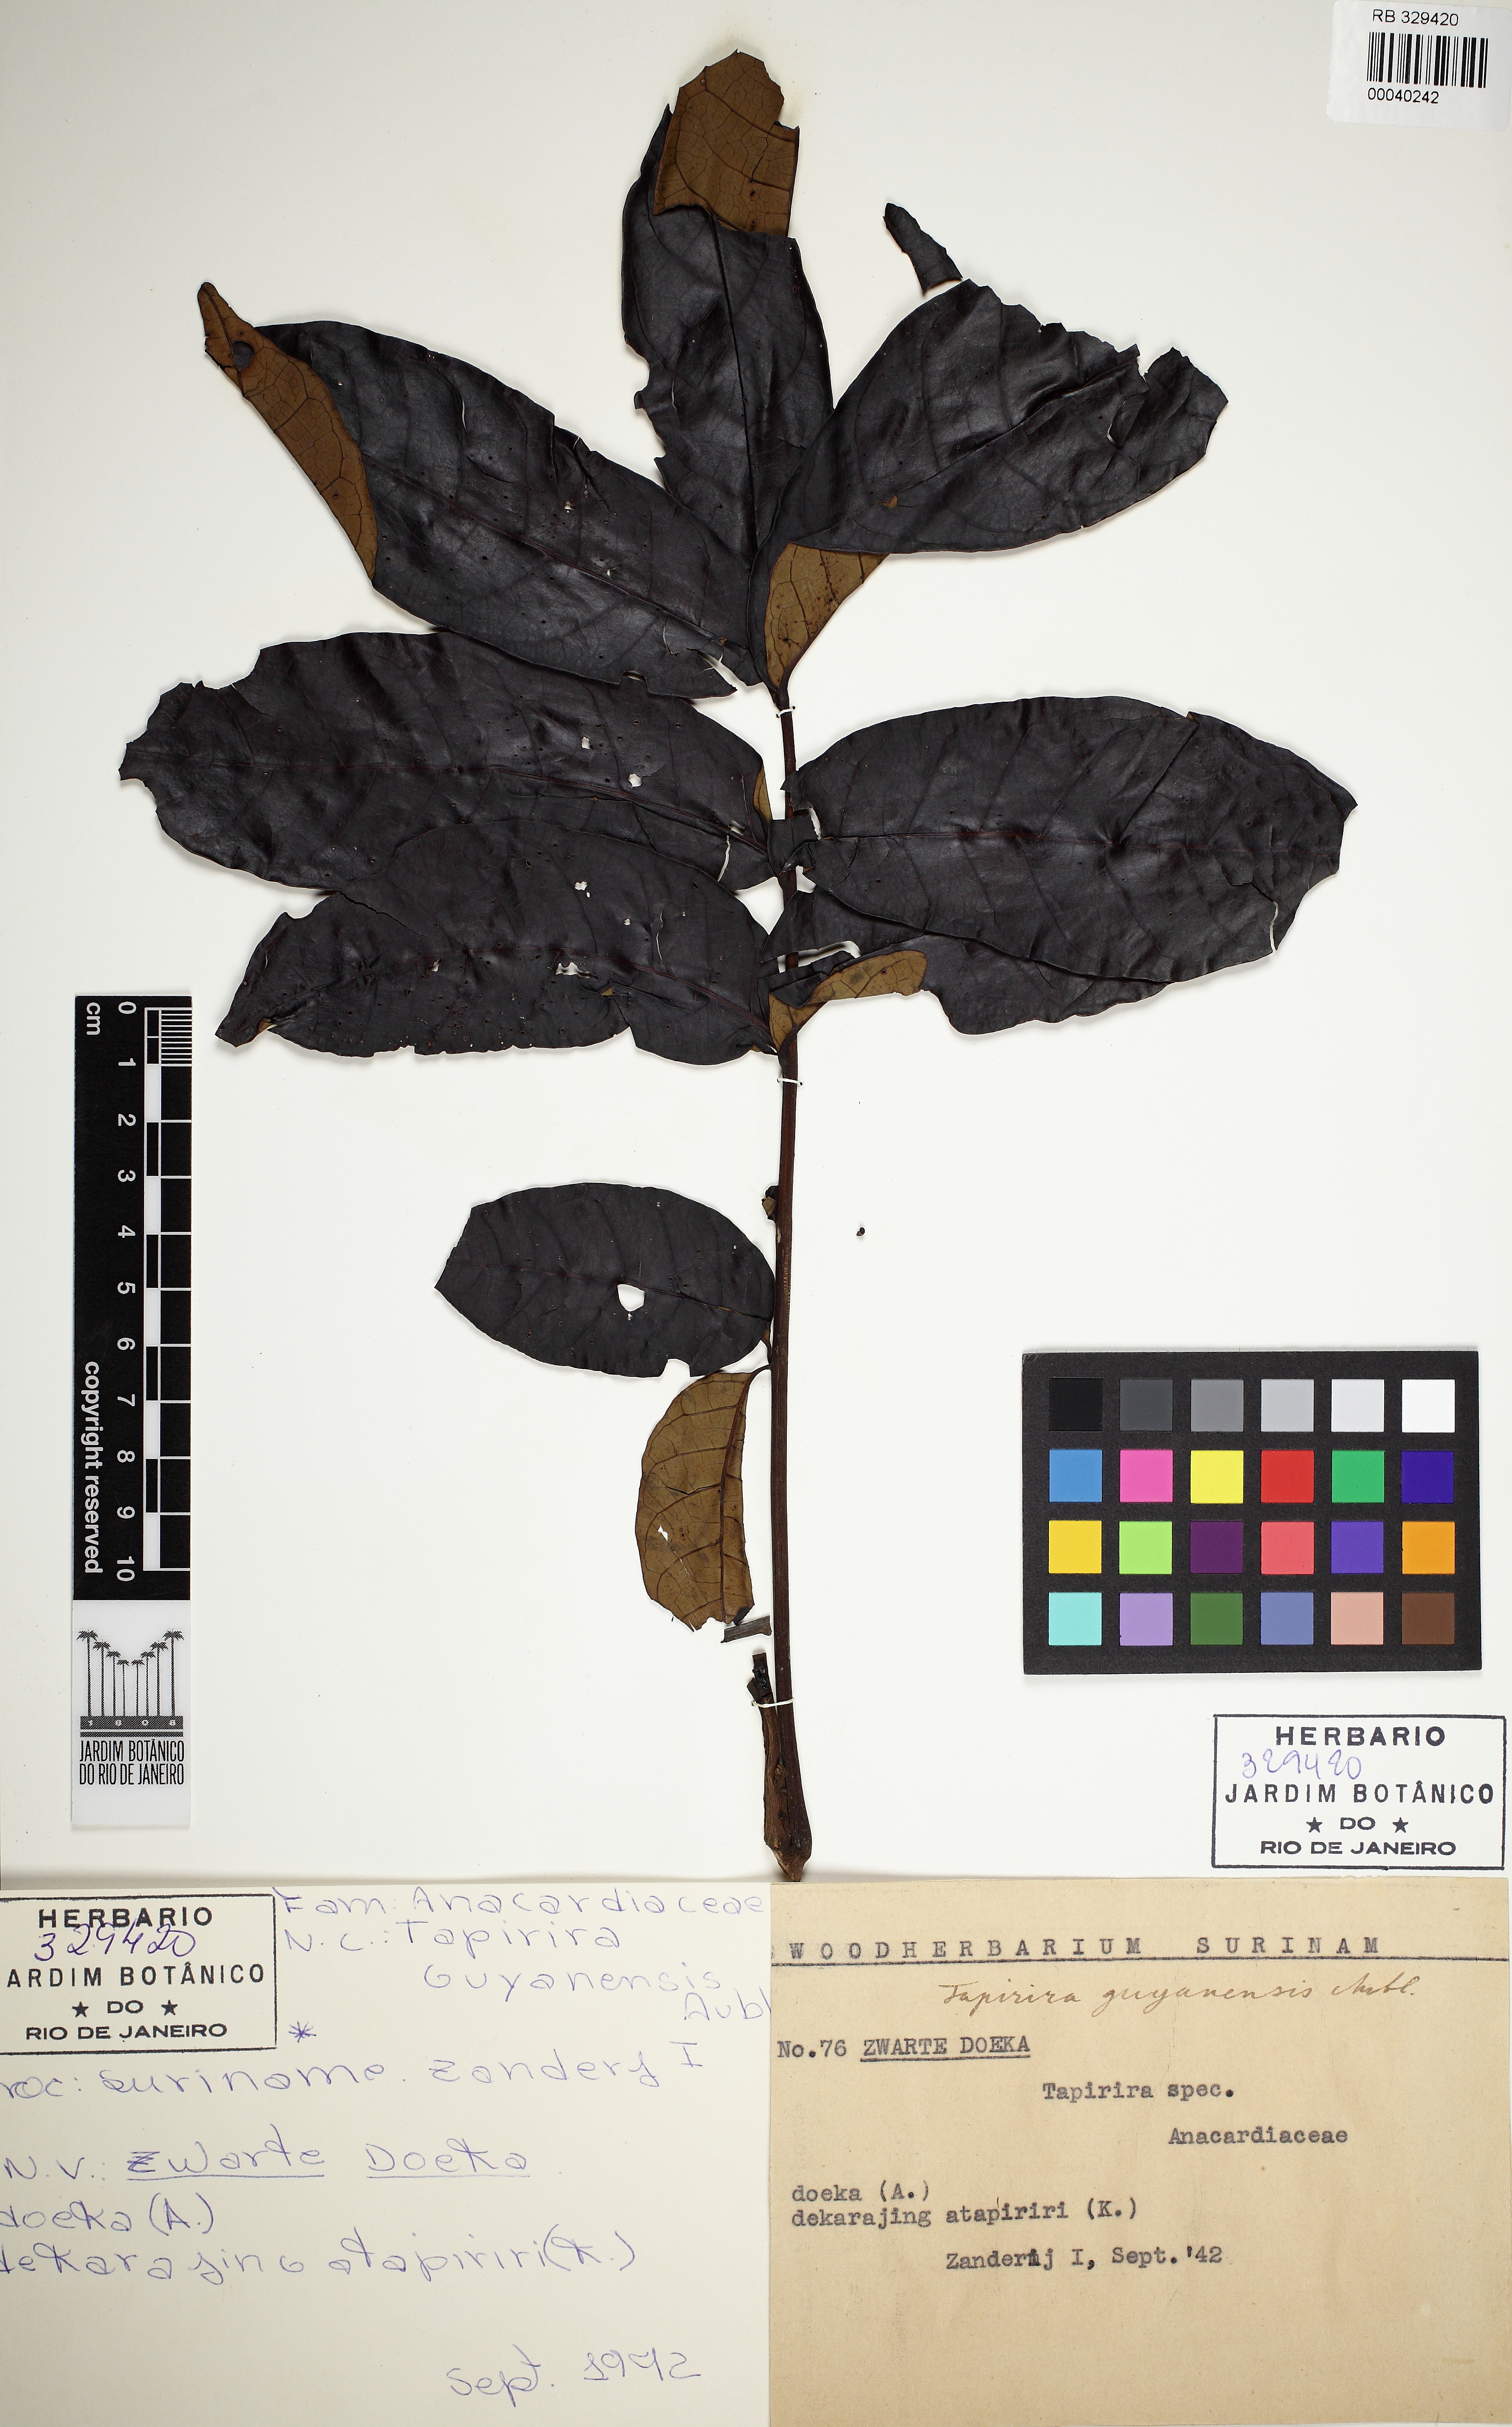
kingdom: Plantae
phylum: Tracheophyta
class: Magnoliopsida
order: Sapindales
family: Anacardiaceae
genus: Tapirira
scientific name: Tapirira
